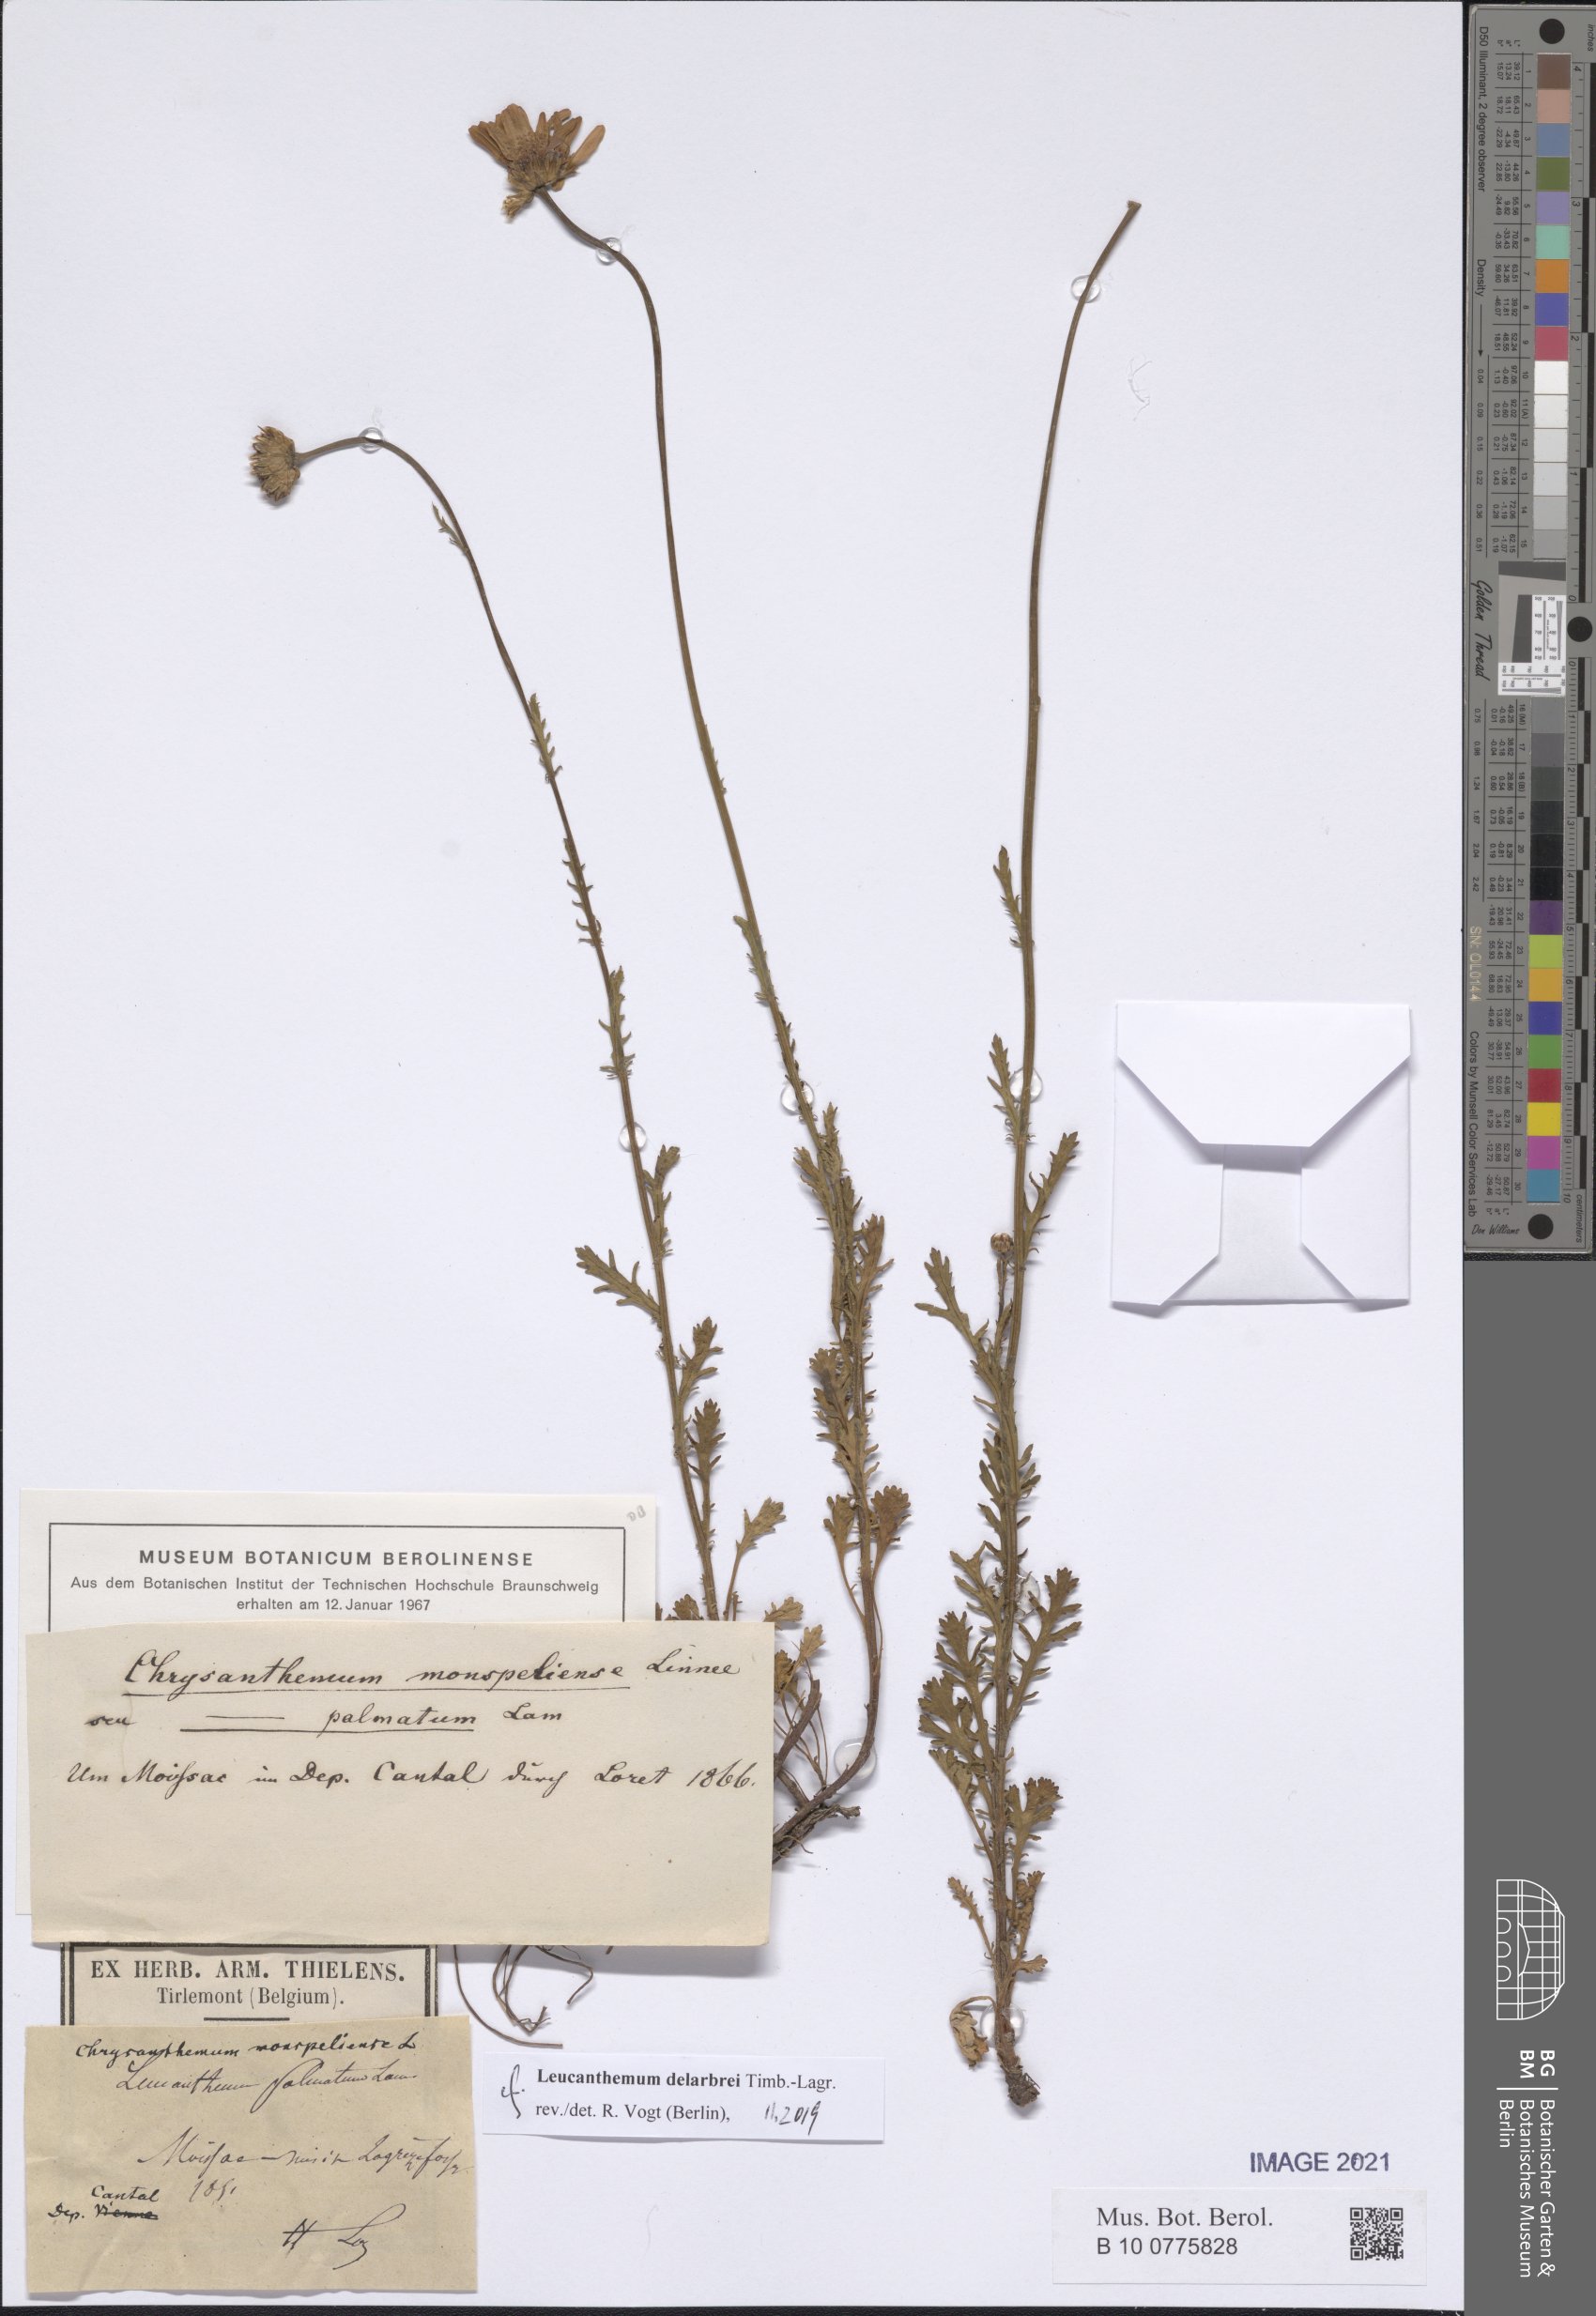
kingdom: Plantae
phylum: Tracheophyta
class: Magnoliopsida
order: Asterales
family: Asteraceae
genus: Leucanthemum
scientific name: Leucanthemum delarbrei
